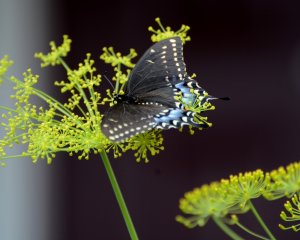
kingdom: Animalia
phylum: Arthropoda
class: Insecta
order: Lepidoptera
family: Papilionidae
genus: Papilio
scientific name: Papilio polyxenes
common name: Black Swallowtail
